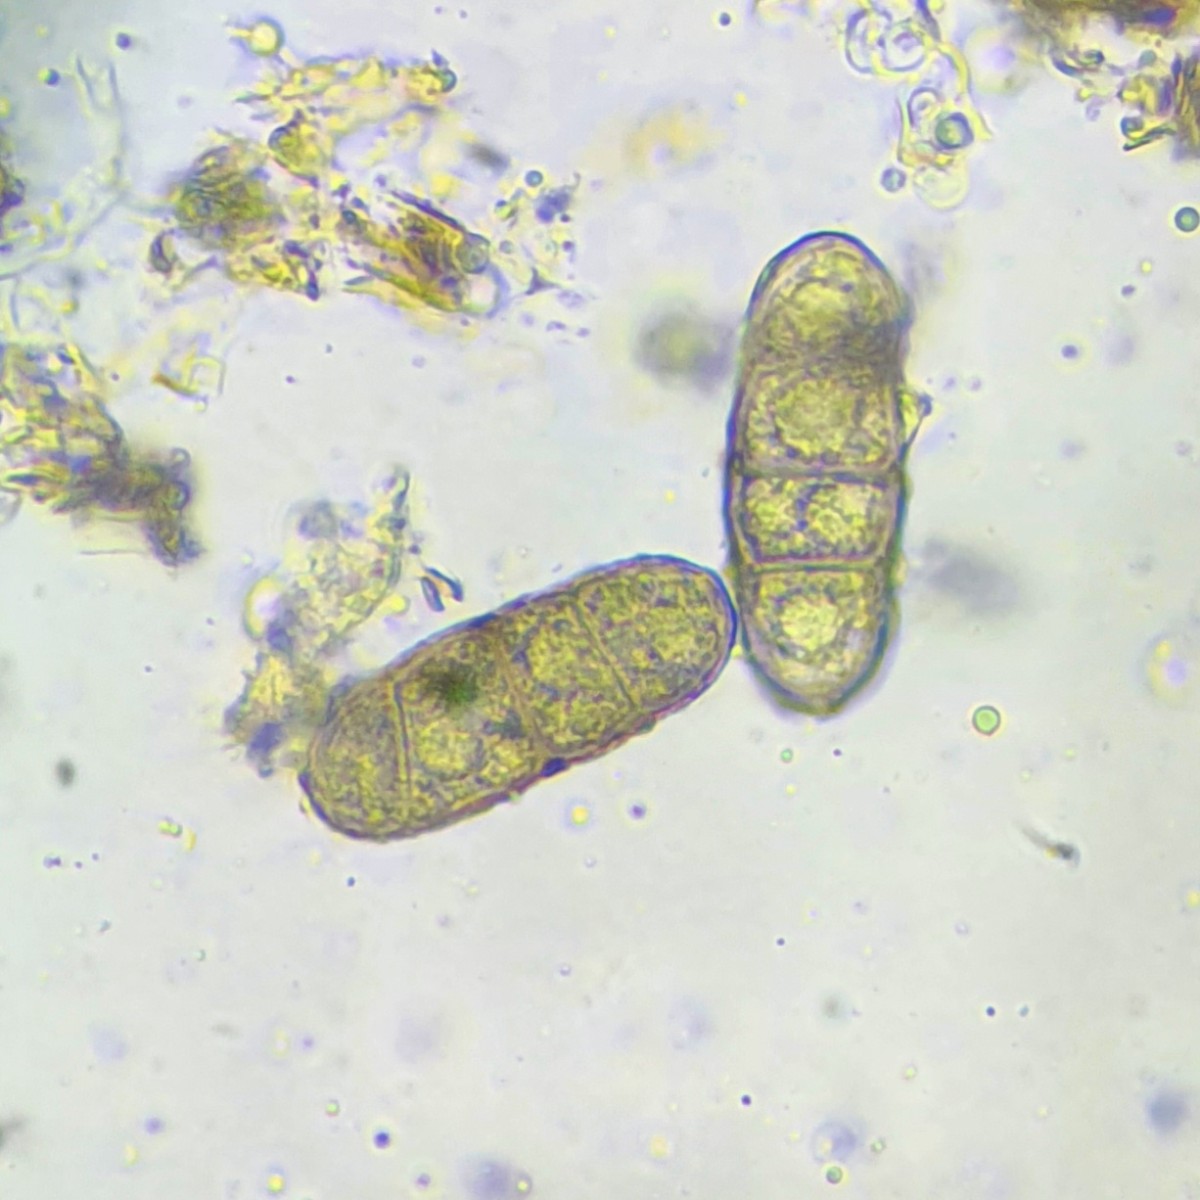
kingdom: Fungi
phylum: Ascomycota
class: Sordariomycetes
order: Diaporthales
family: Gnomoniaceae
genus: Alnecium
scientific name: Alnecium auctum
